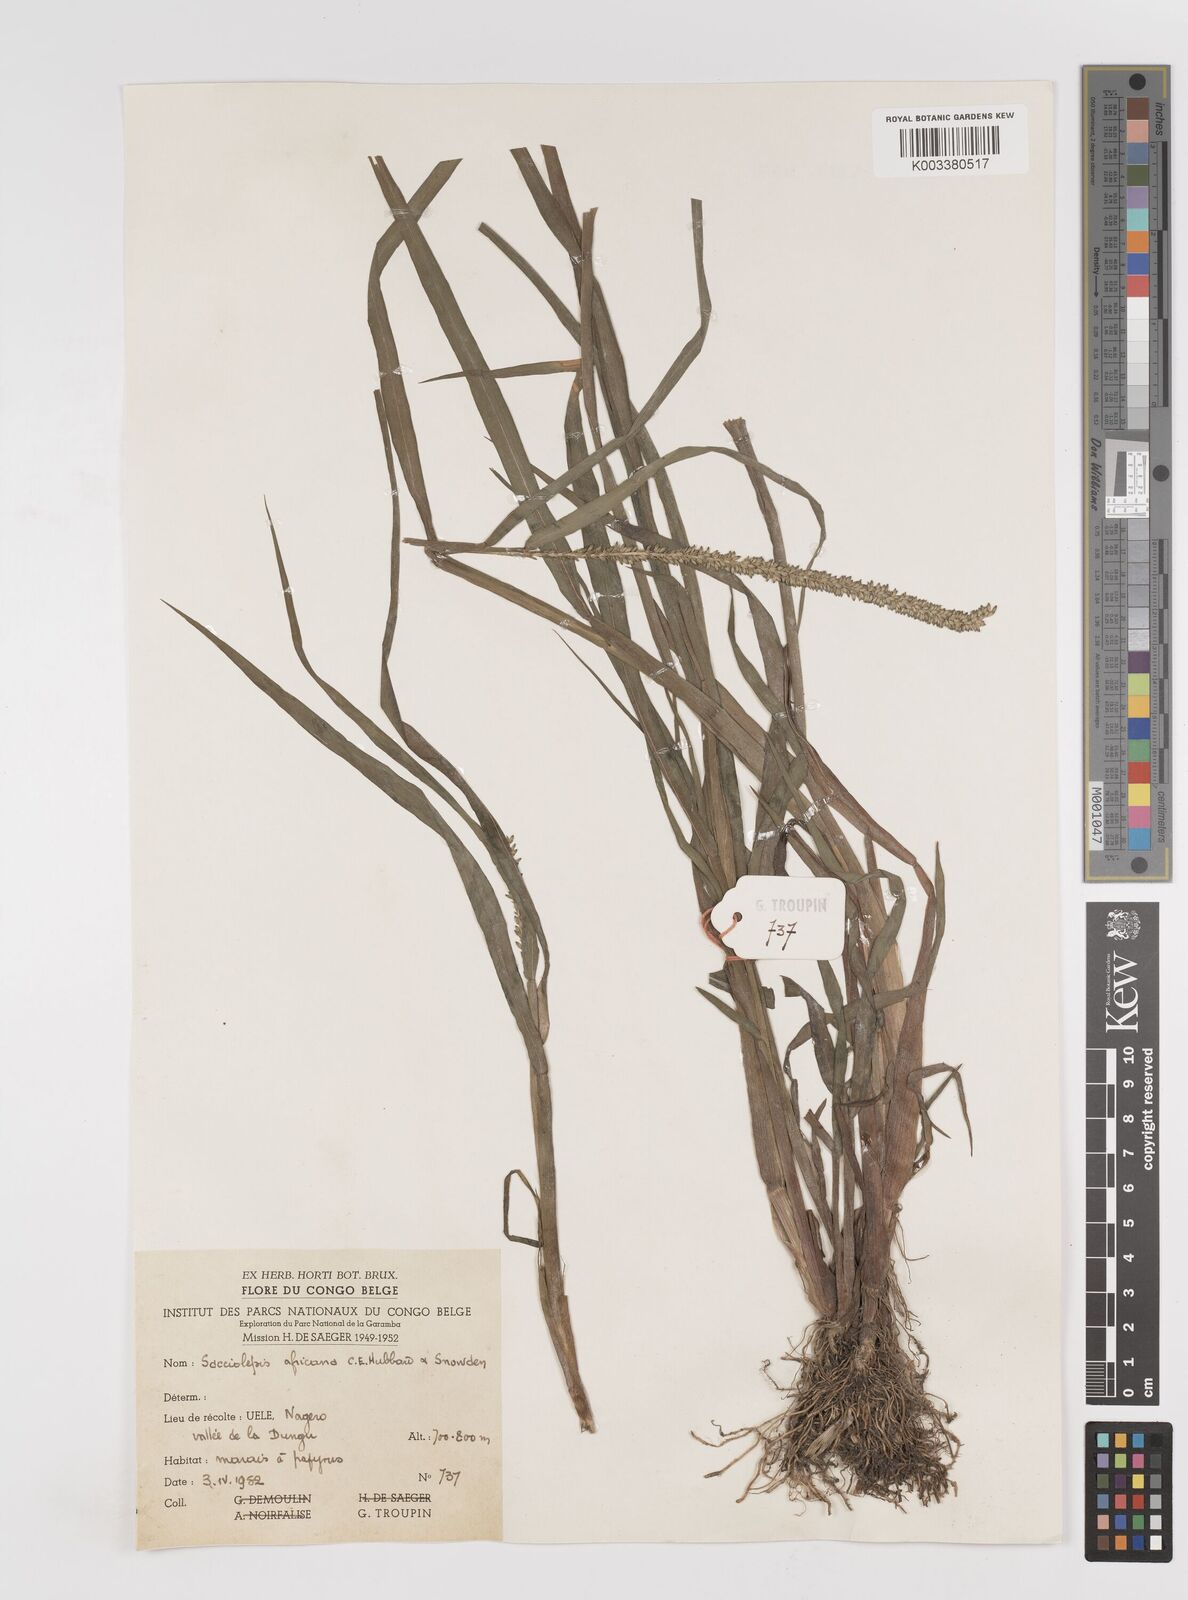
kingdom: Plantae
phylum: Tracheophyta
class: Liliopsida
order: Poales
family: Poaceae
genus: Sacciolepis
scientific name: Sacciolepis africana
